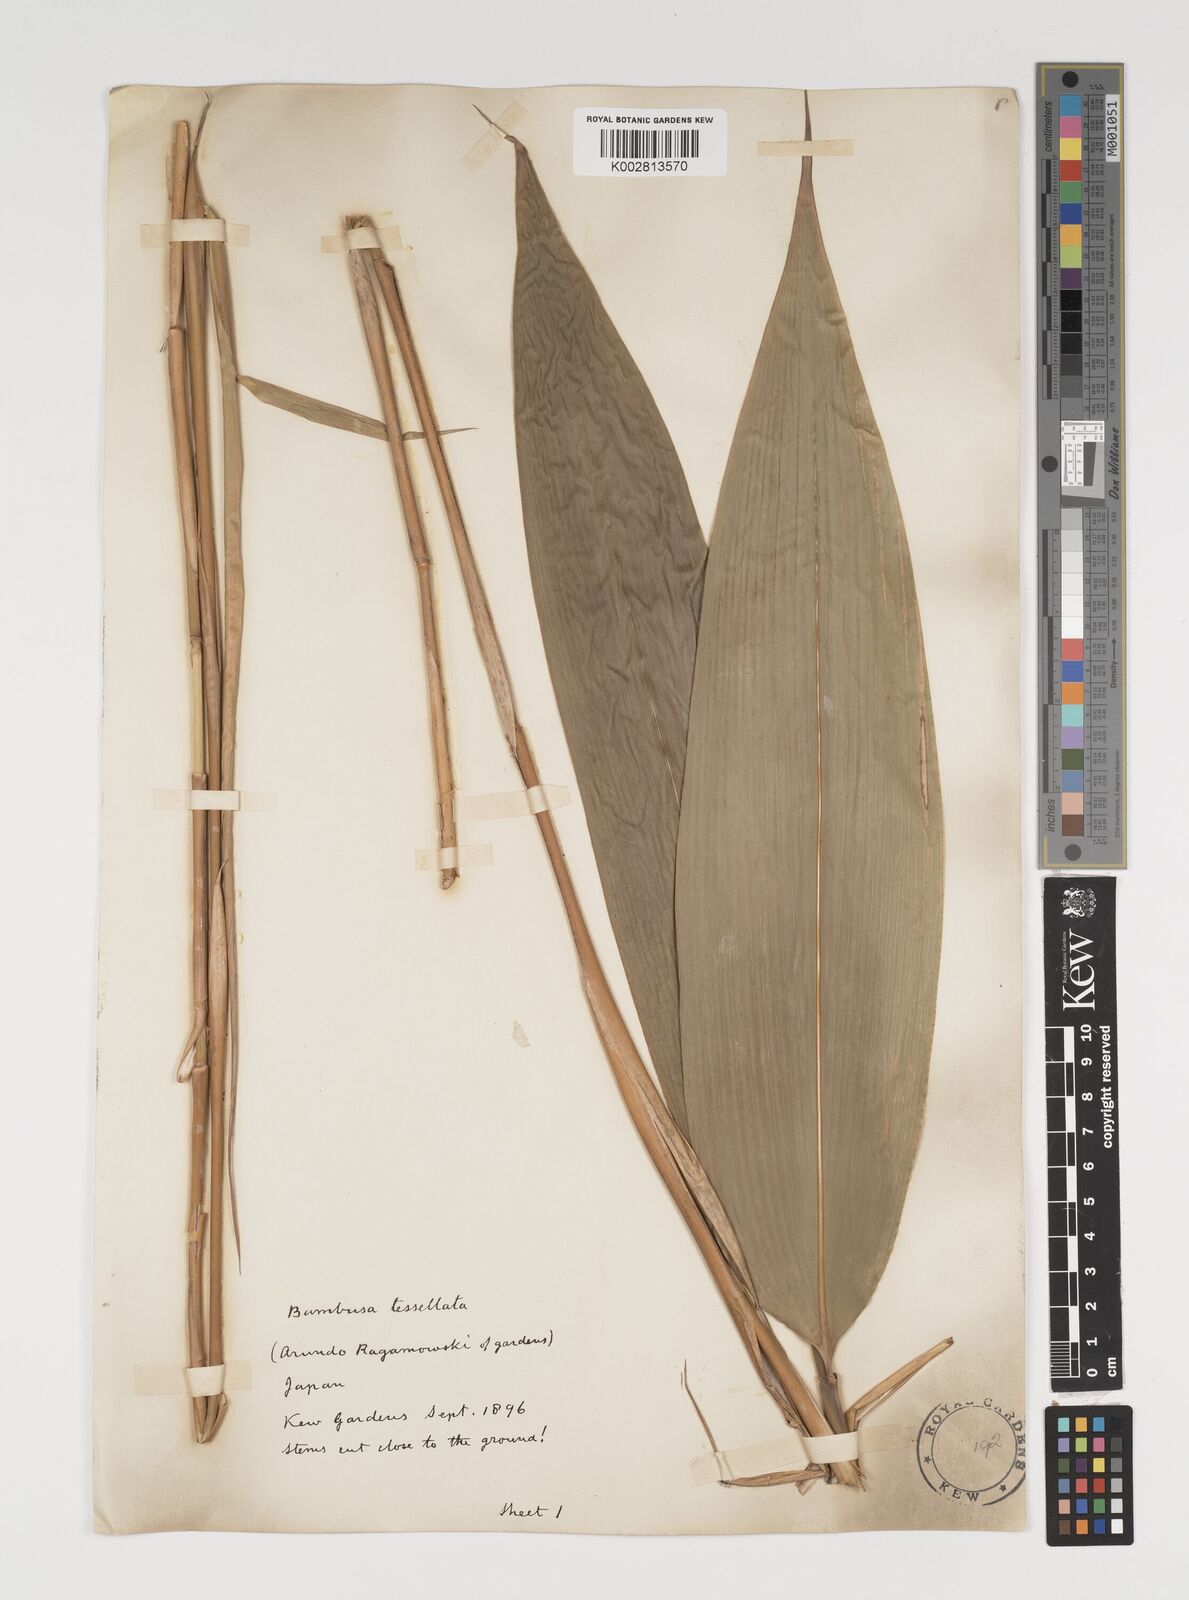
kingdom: Plantae
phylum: Tracheophyta
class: Liliopsida
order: Poales
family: Poaceae
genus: Indocalamus
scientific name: Indocalamus tessellatus
